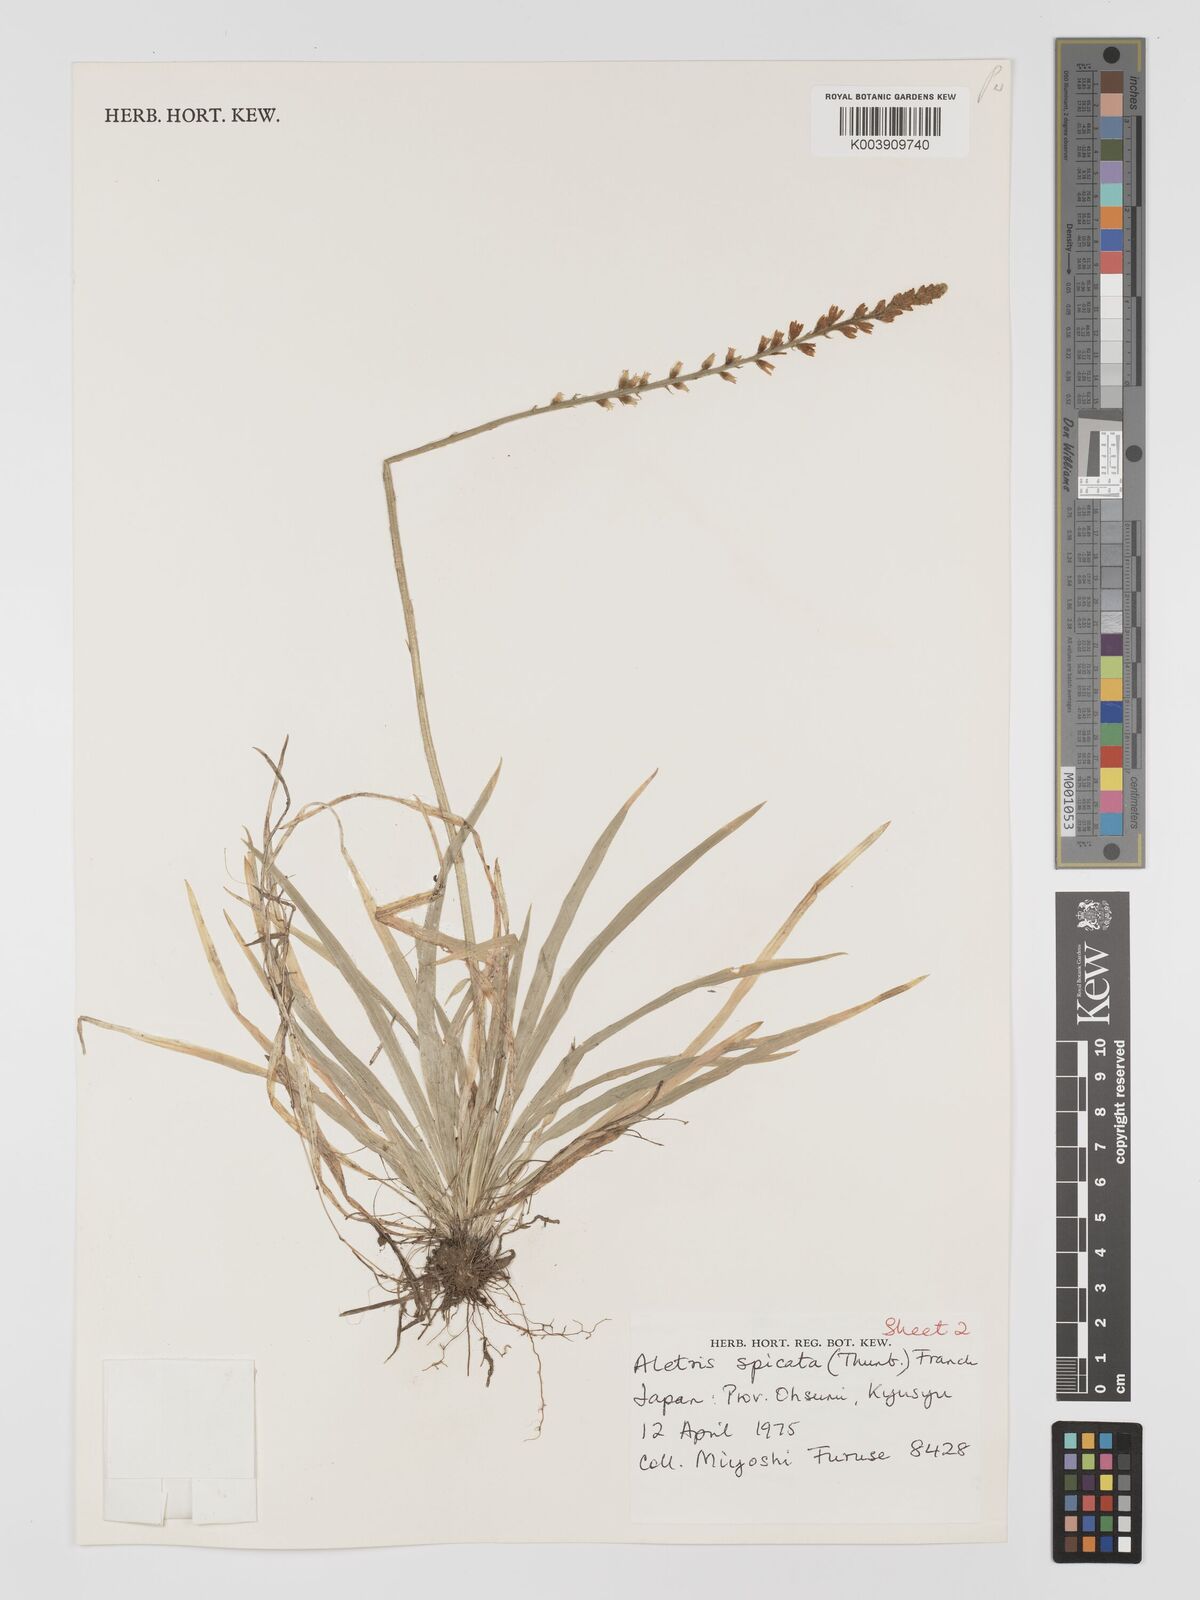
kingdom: Plantae
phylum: Tracheophyta
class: Liliopsida
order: Dioscoreales
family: Nartheciaceae
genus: Aletris
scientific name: Aletris spicata
